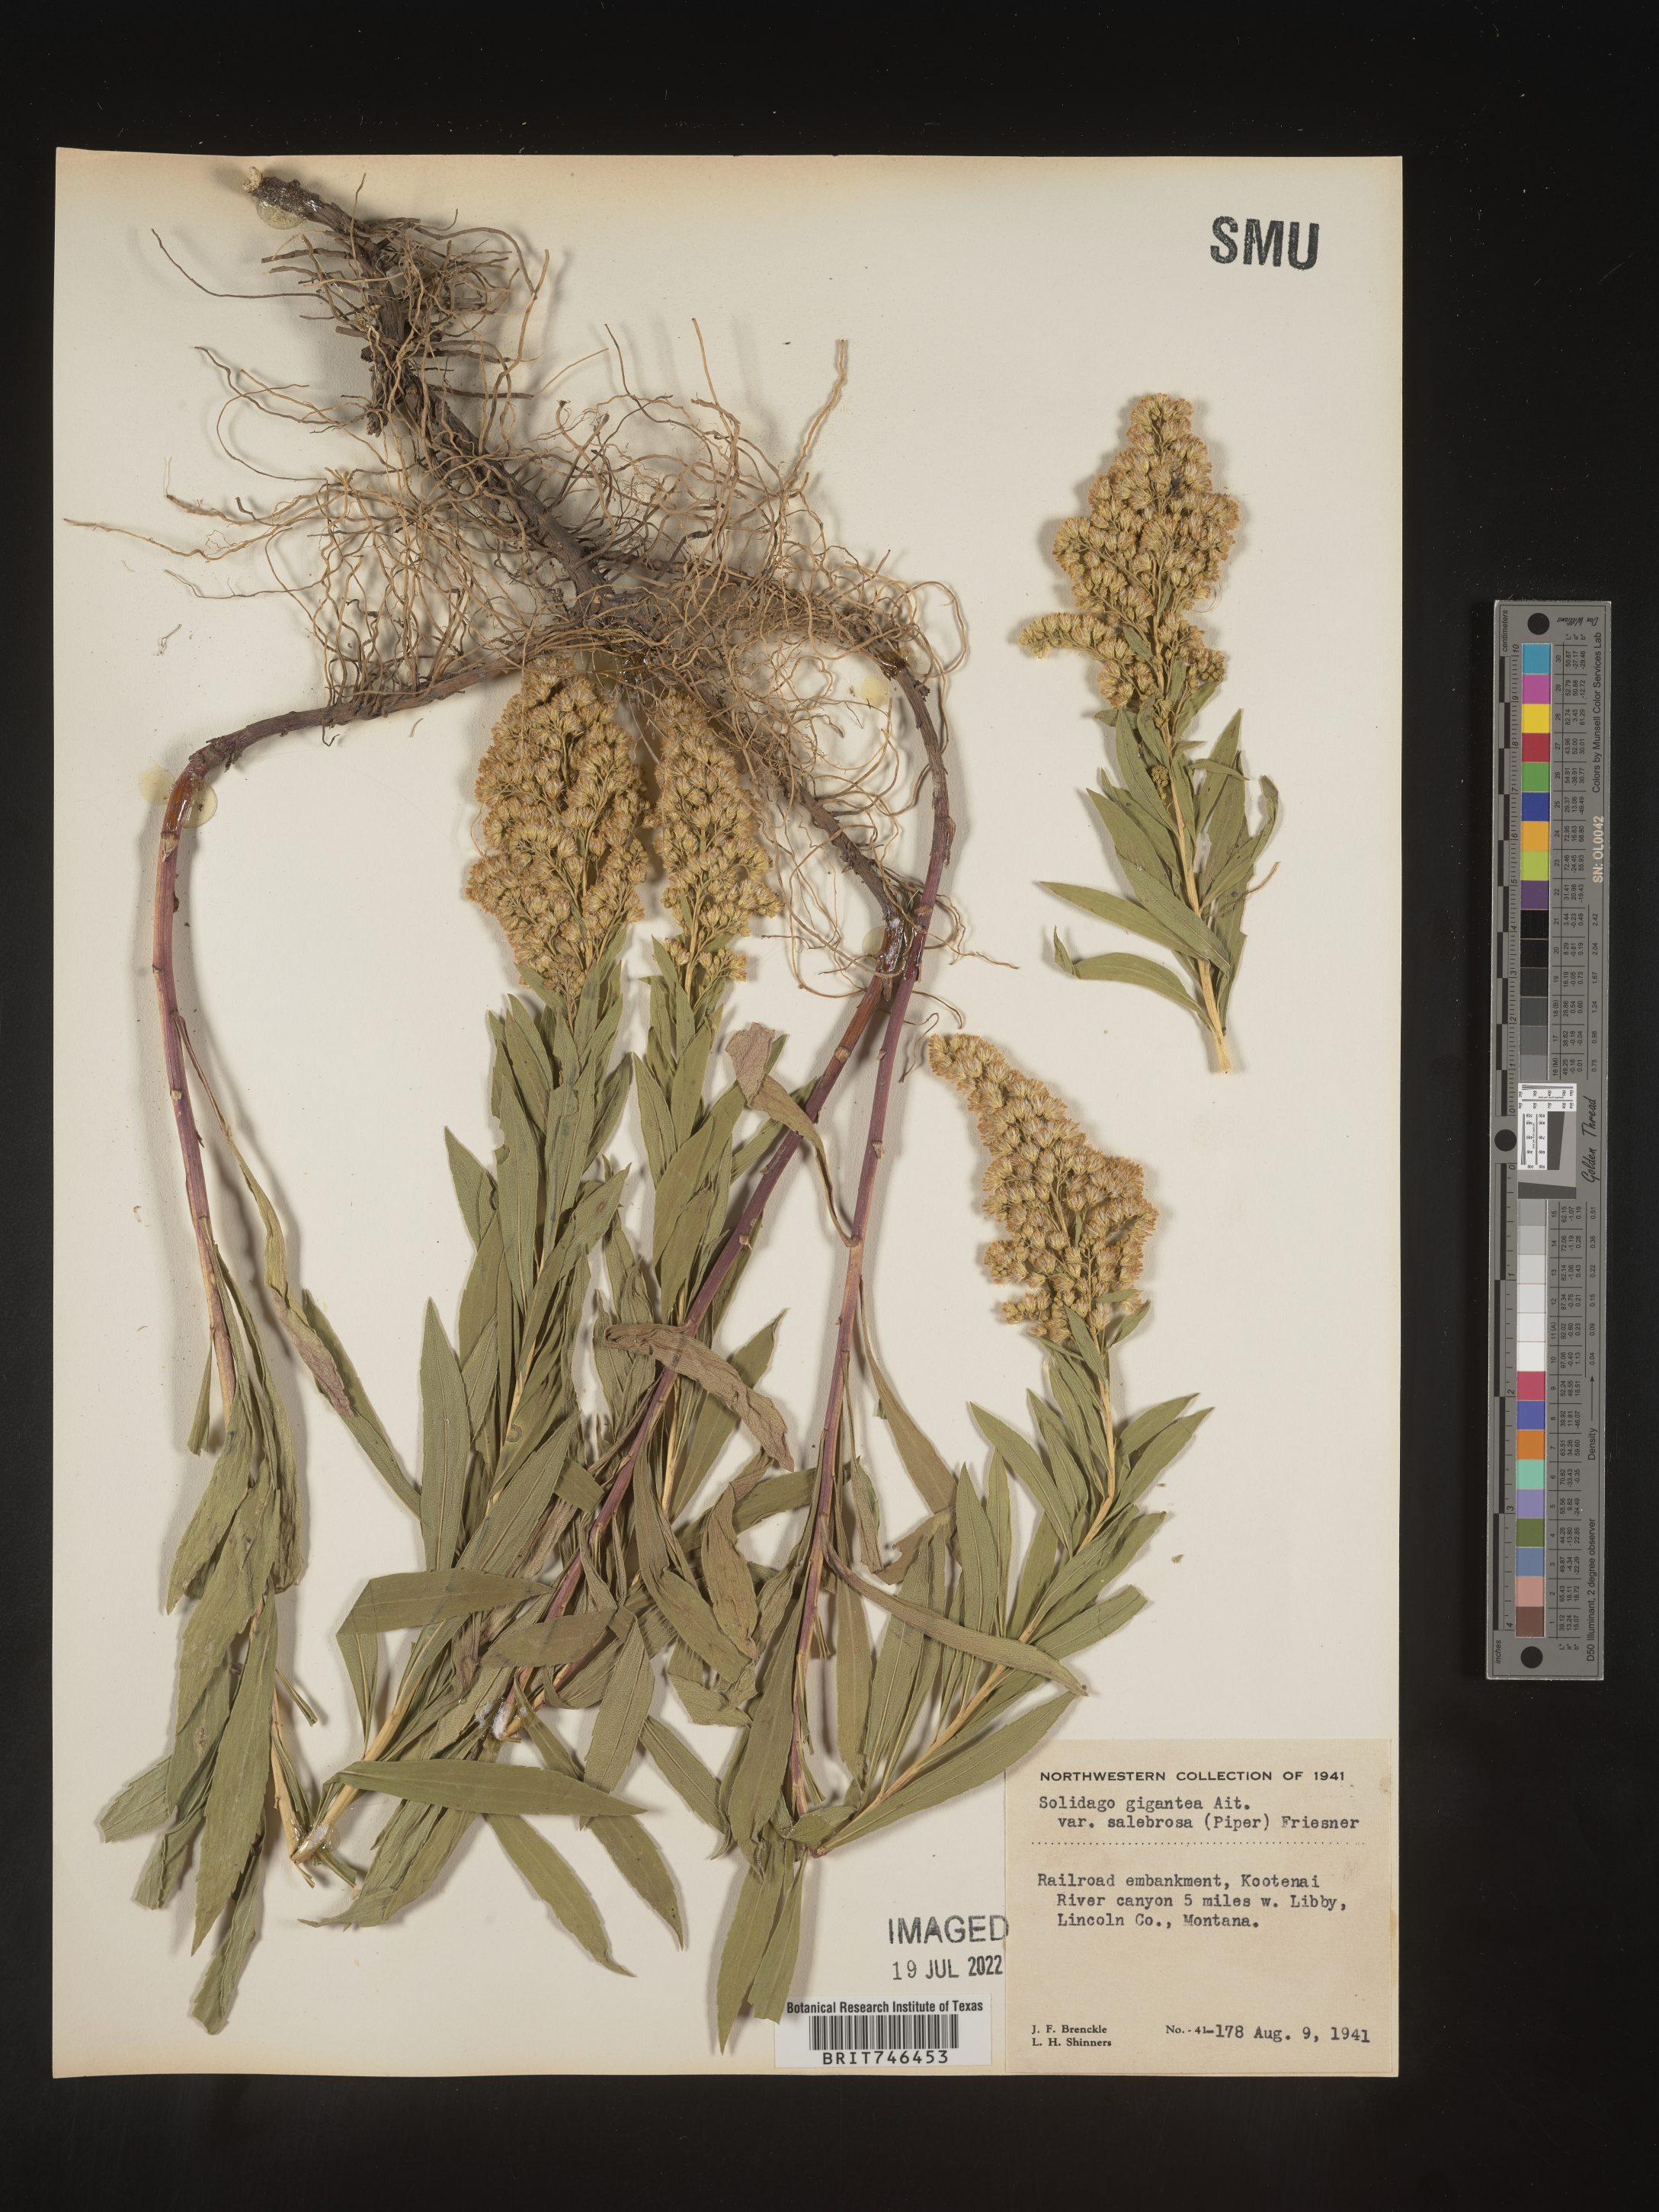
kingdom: Plantae
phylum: Tracheophyta
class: Magnoliopsida
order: Asterales
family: Asteraceae
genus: Solidago
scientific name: Solidago lepida
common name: Western canada goldenrod
